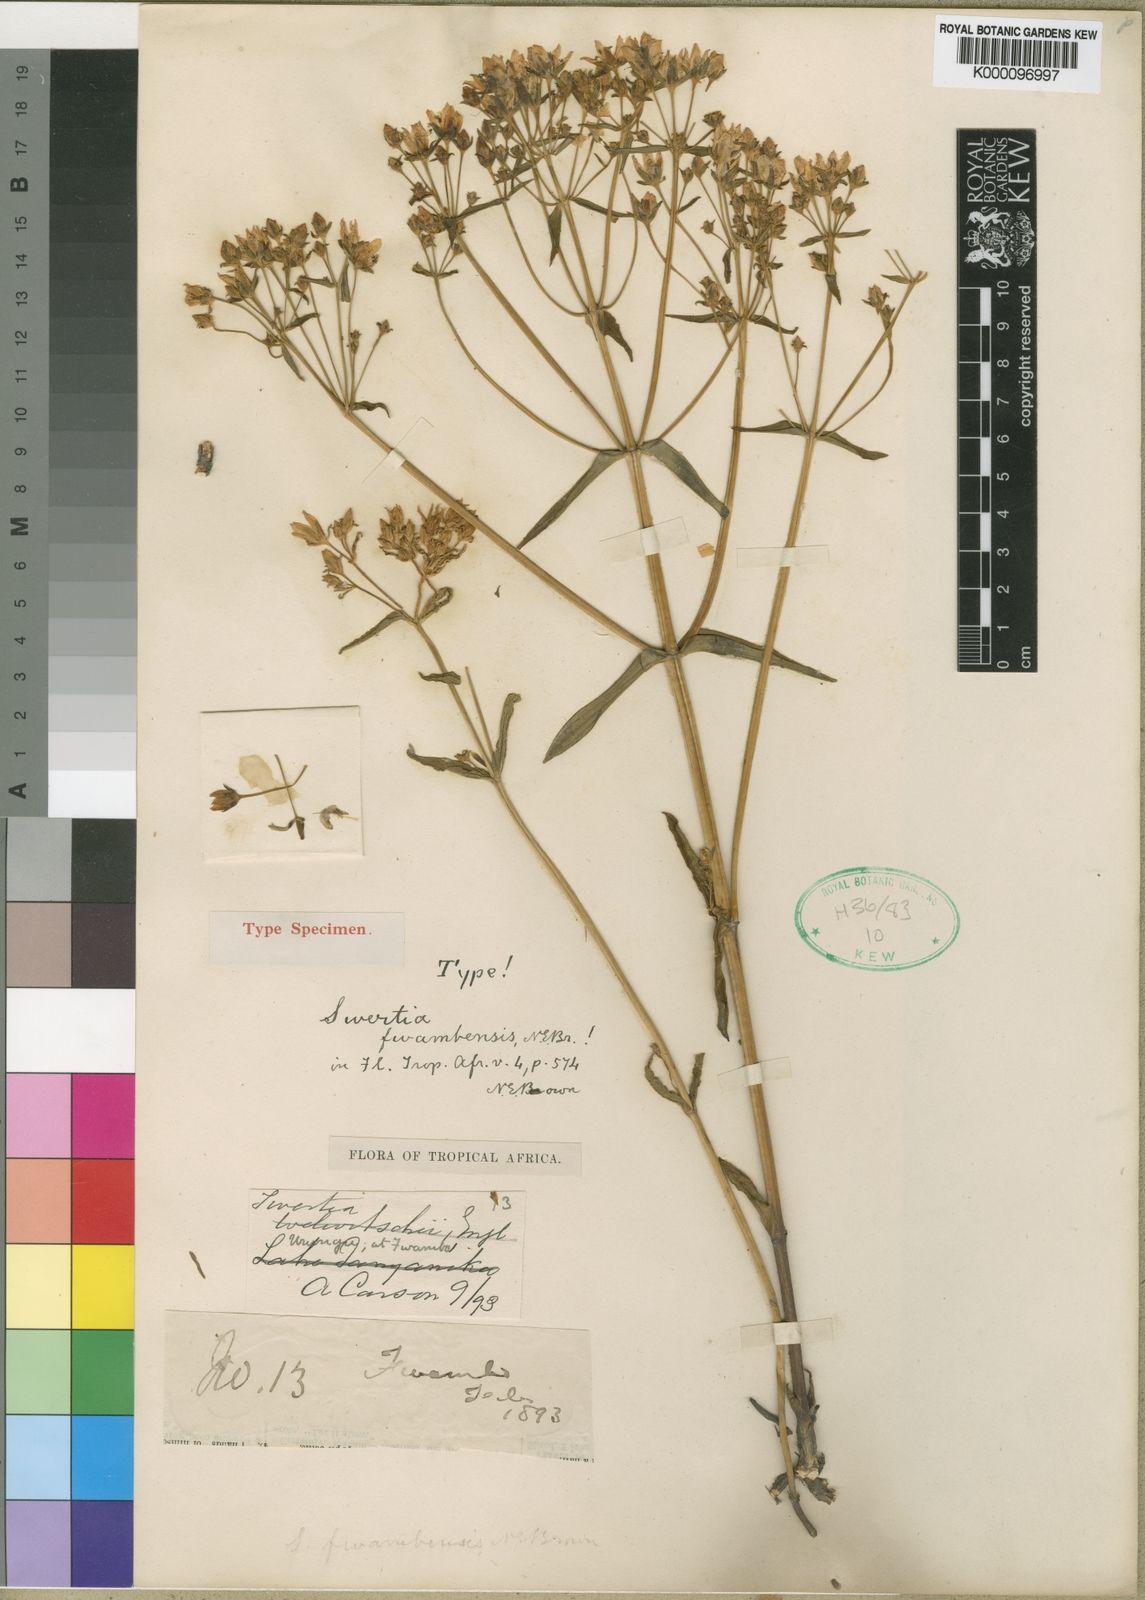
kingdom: Plantae
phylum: Tracheophyta
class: Magnoliopsida
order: Gentianales
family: Gentianaceae
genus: Swertia
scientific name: Swertia quartiniana
